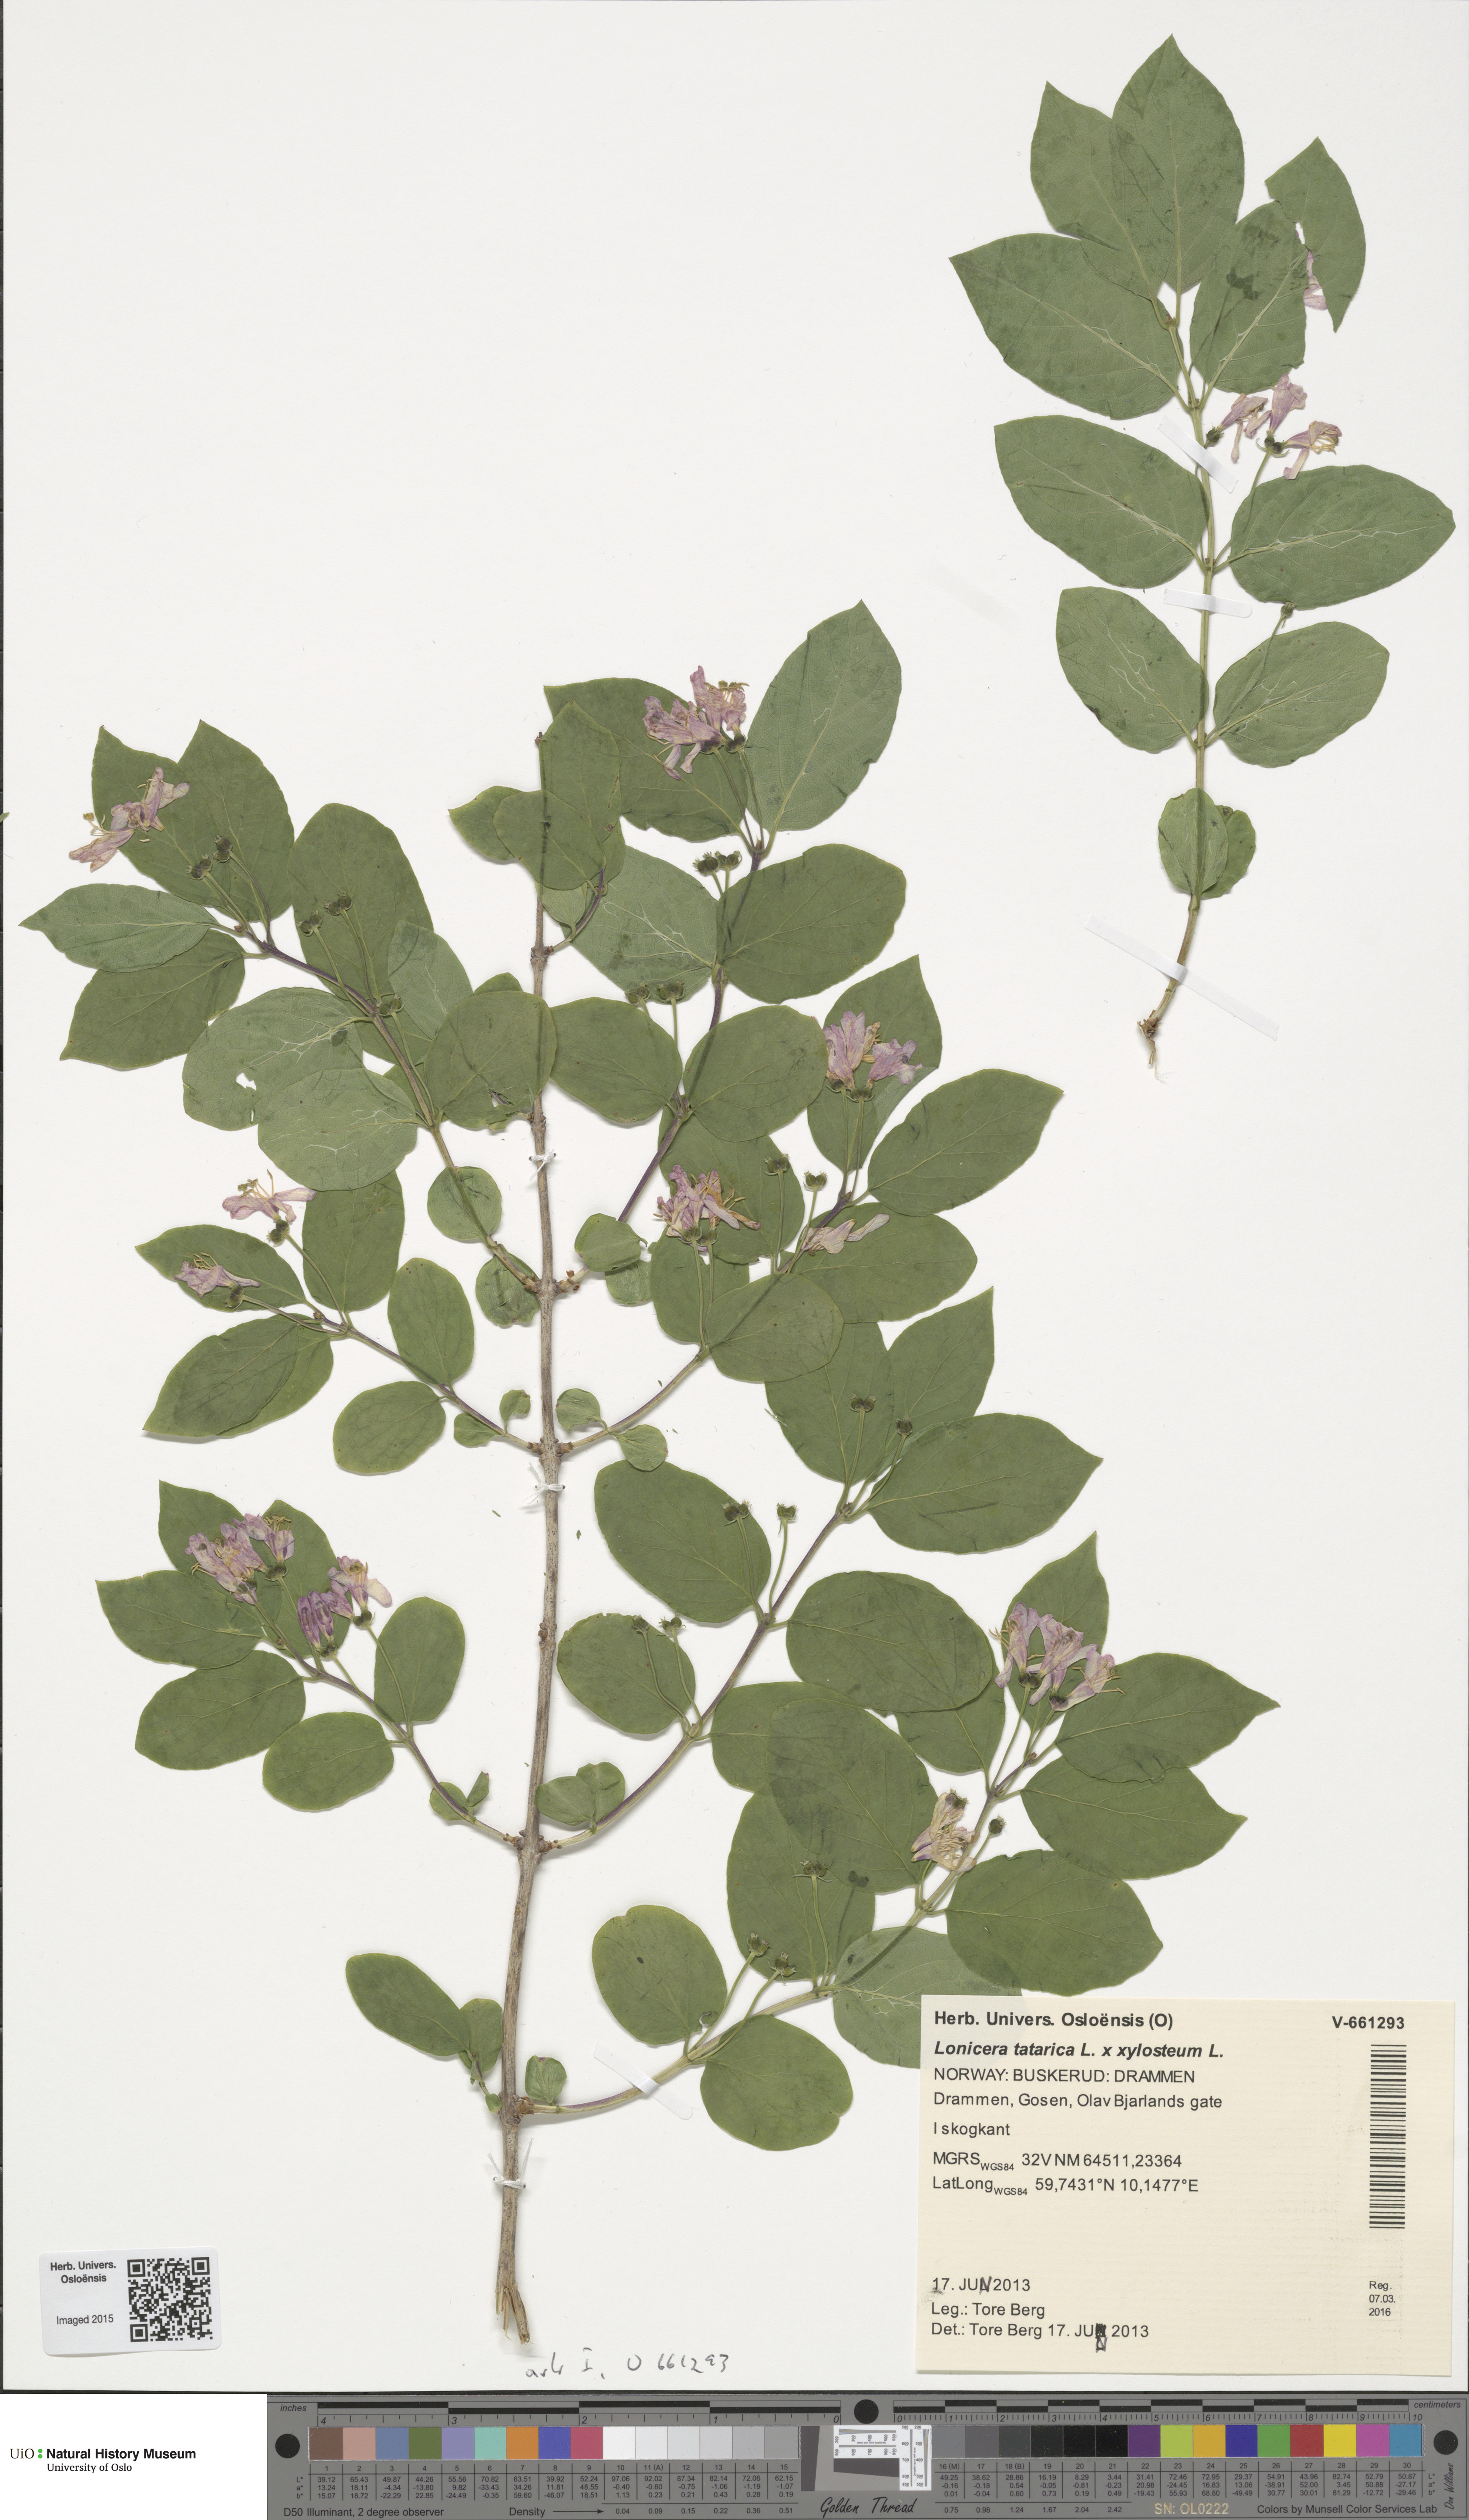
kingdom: Plantae
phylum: Tracheophyta
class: Magnoliopsida
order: Dipsacales
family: Caprifoliaceae
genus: Lonicera
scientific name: Lonicera
